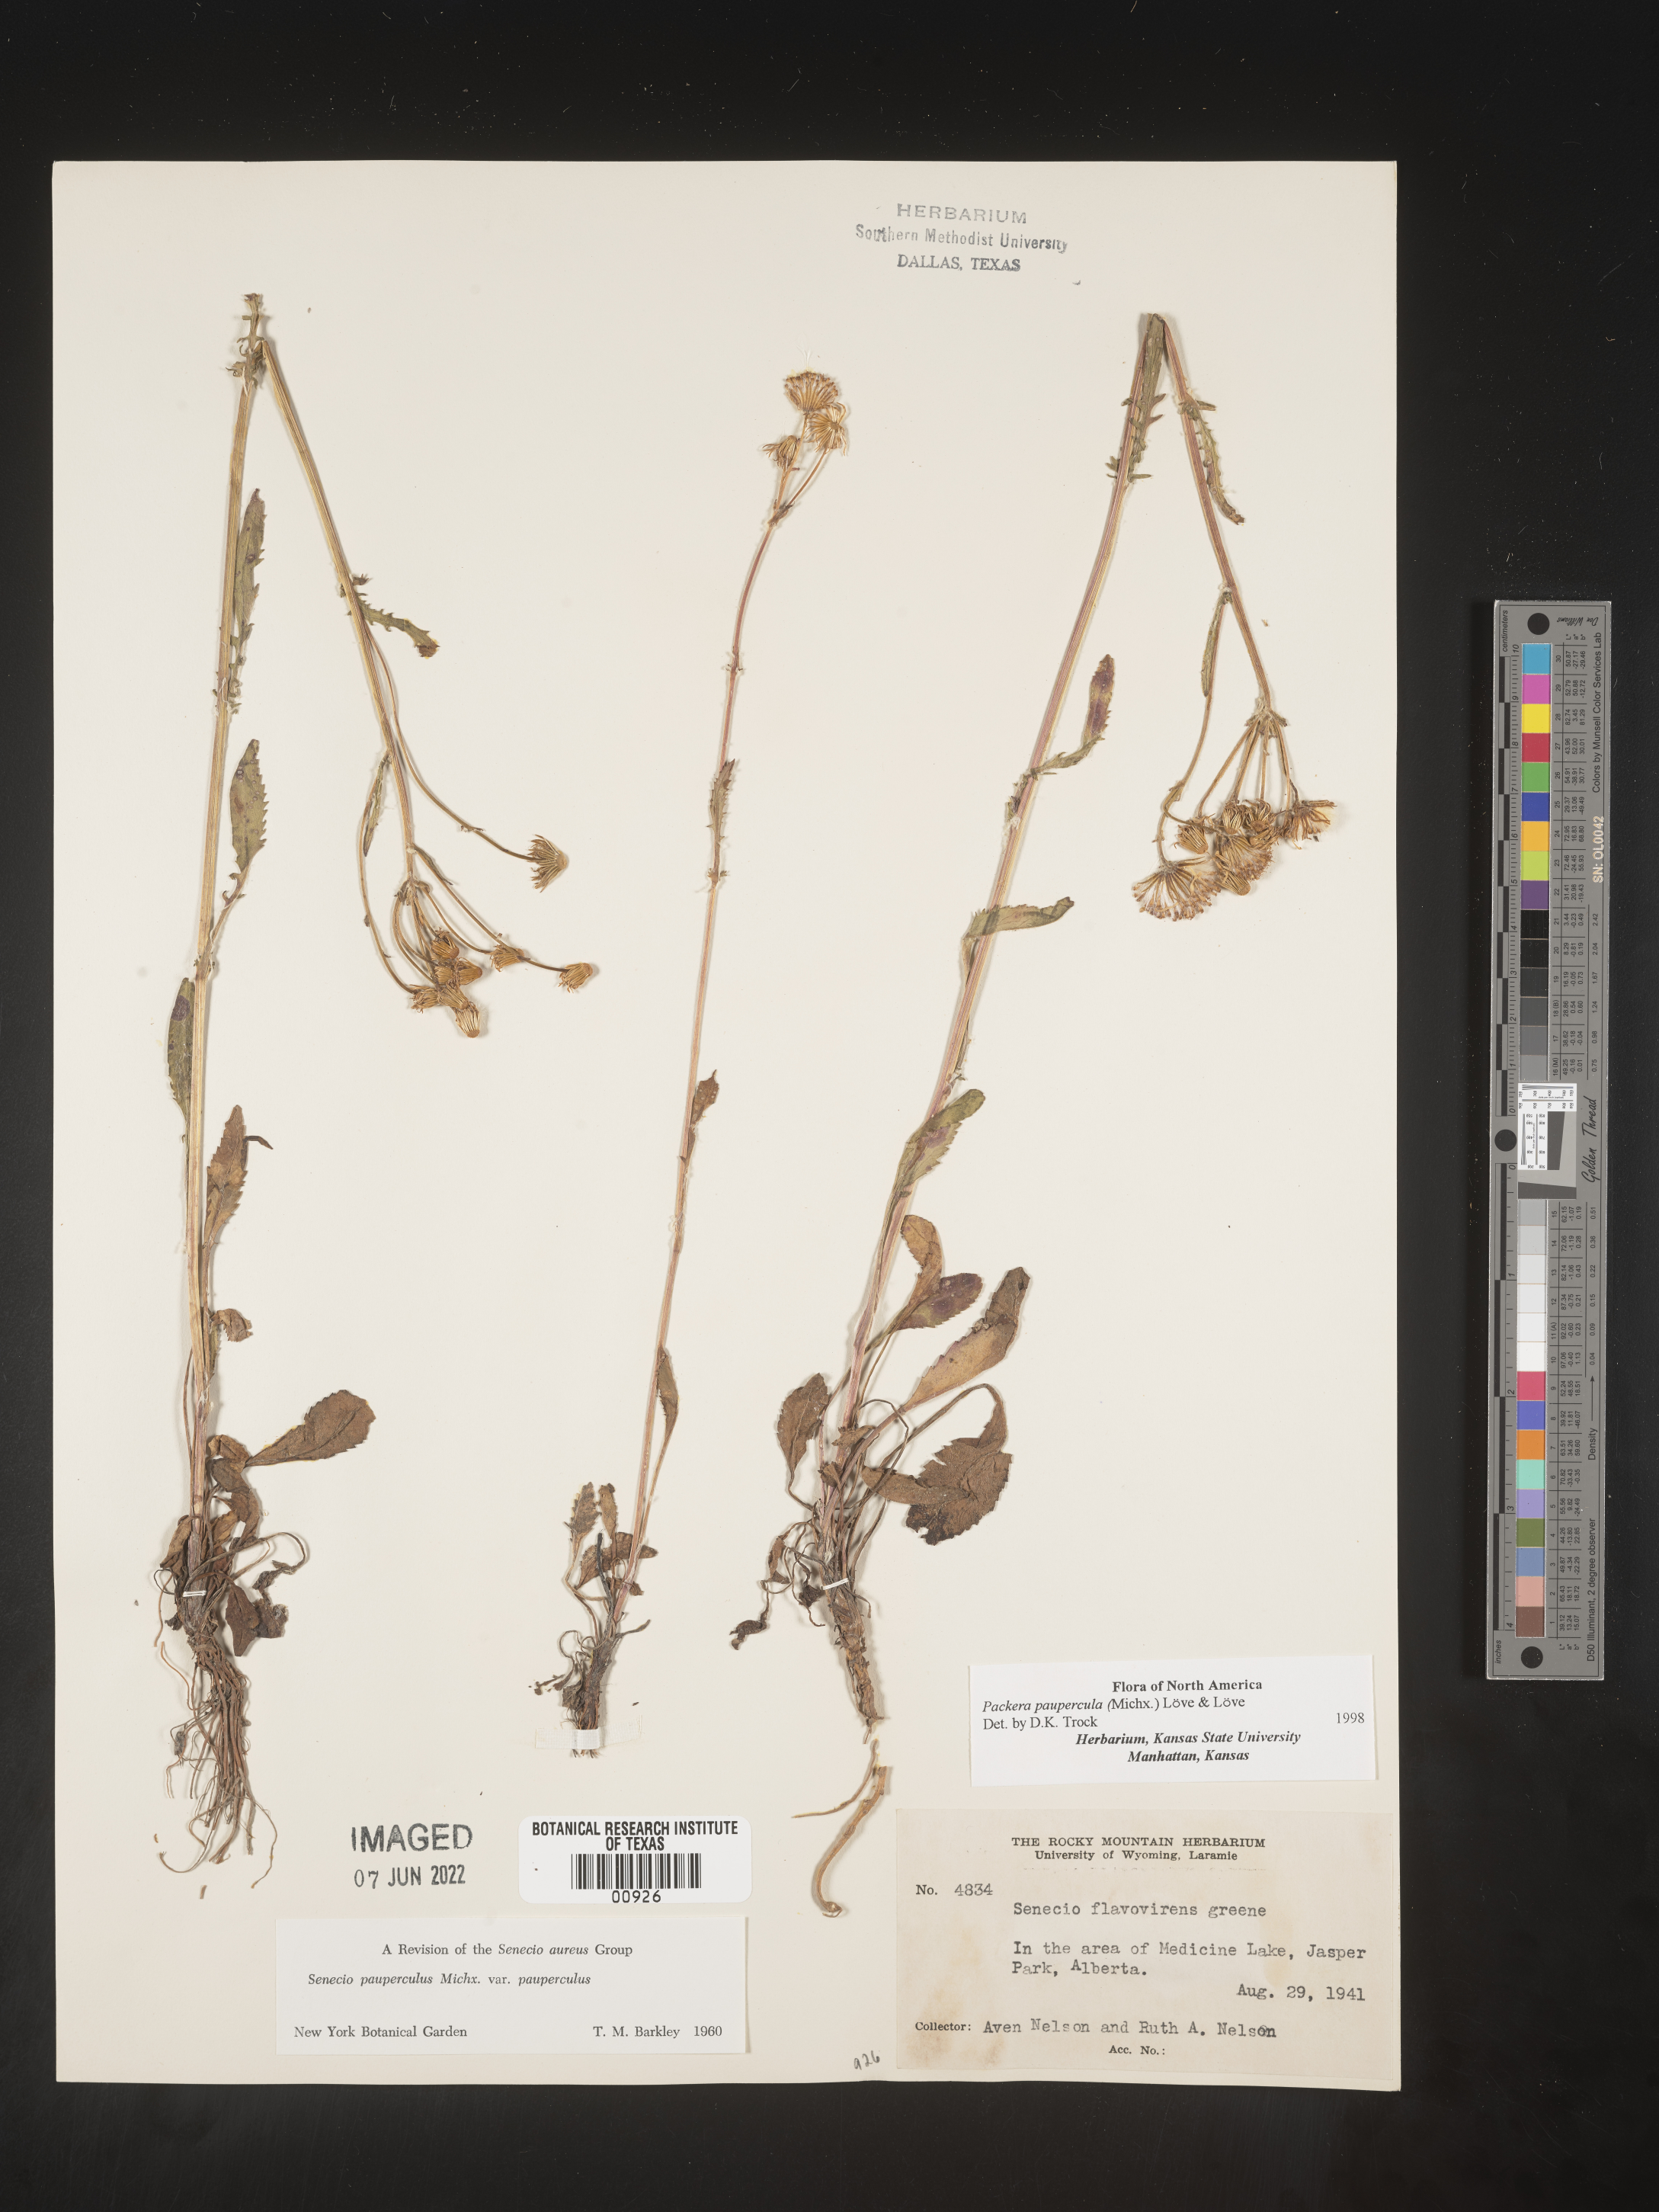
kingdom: Plantae
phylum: Tracheophyta
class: Magnoliopsida
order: Asterales
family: Asteraceae
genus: Packera
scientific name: Packera paupercula
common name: Balsam groundsel
